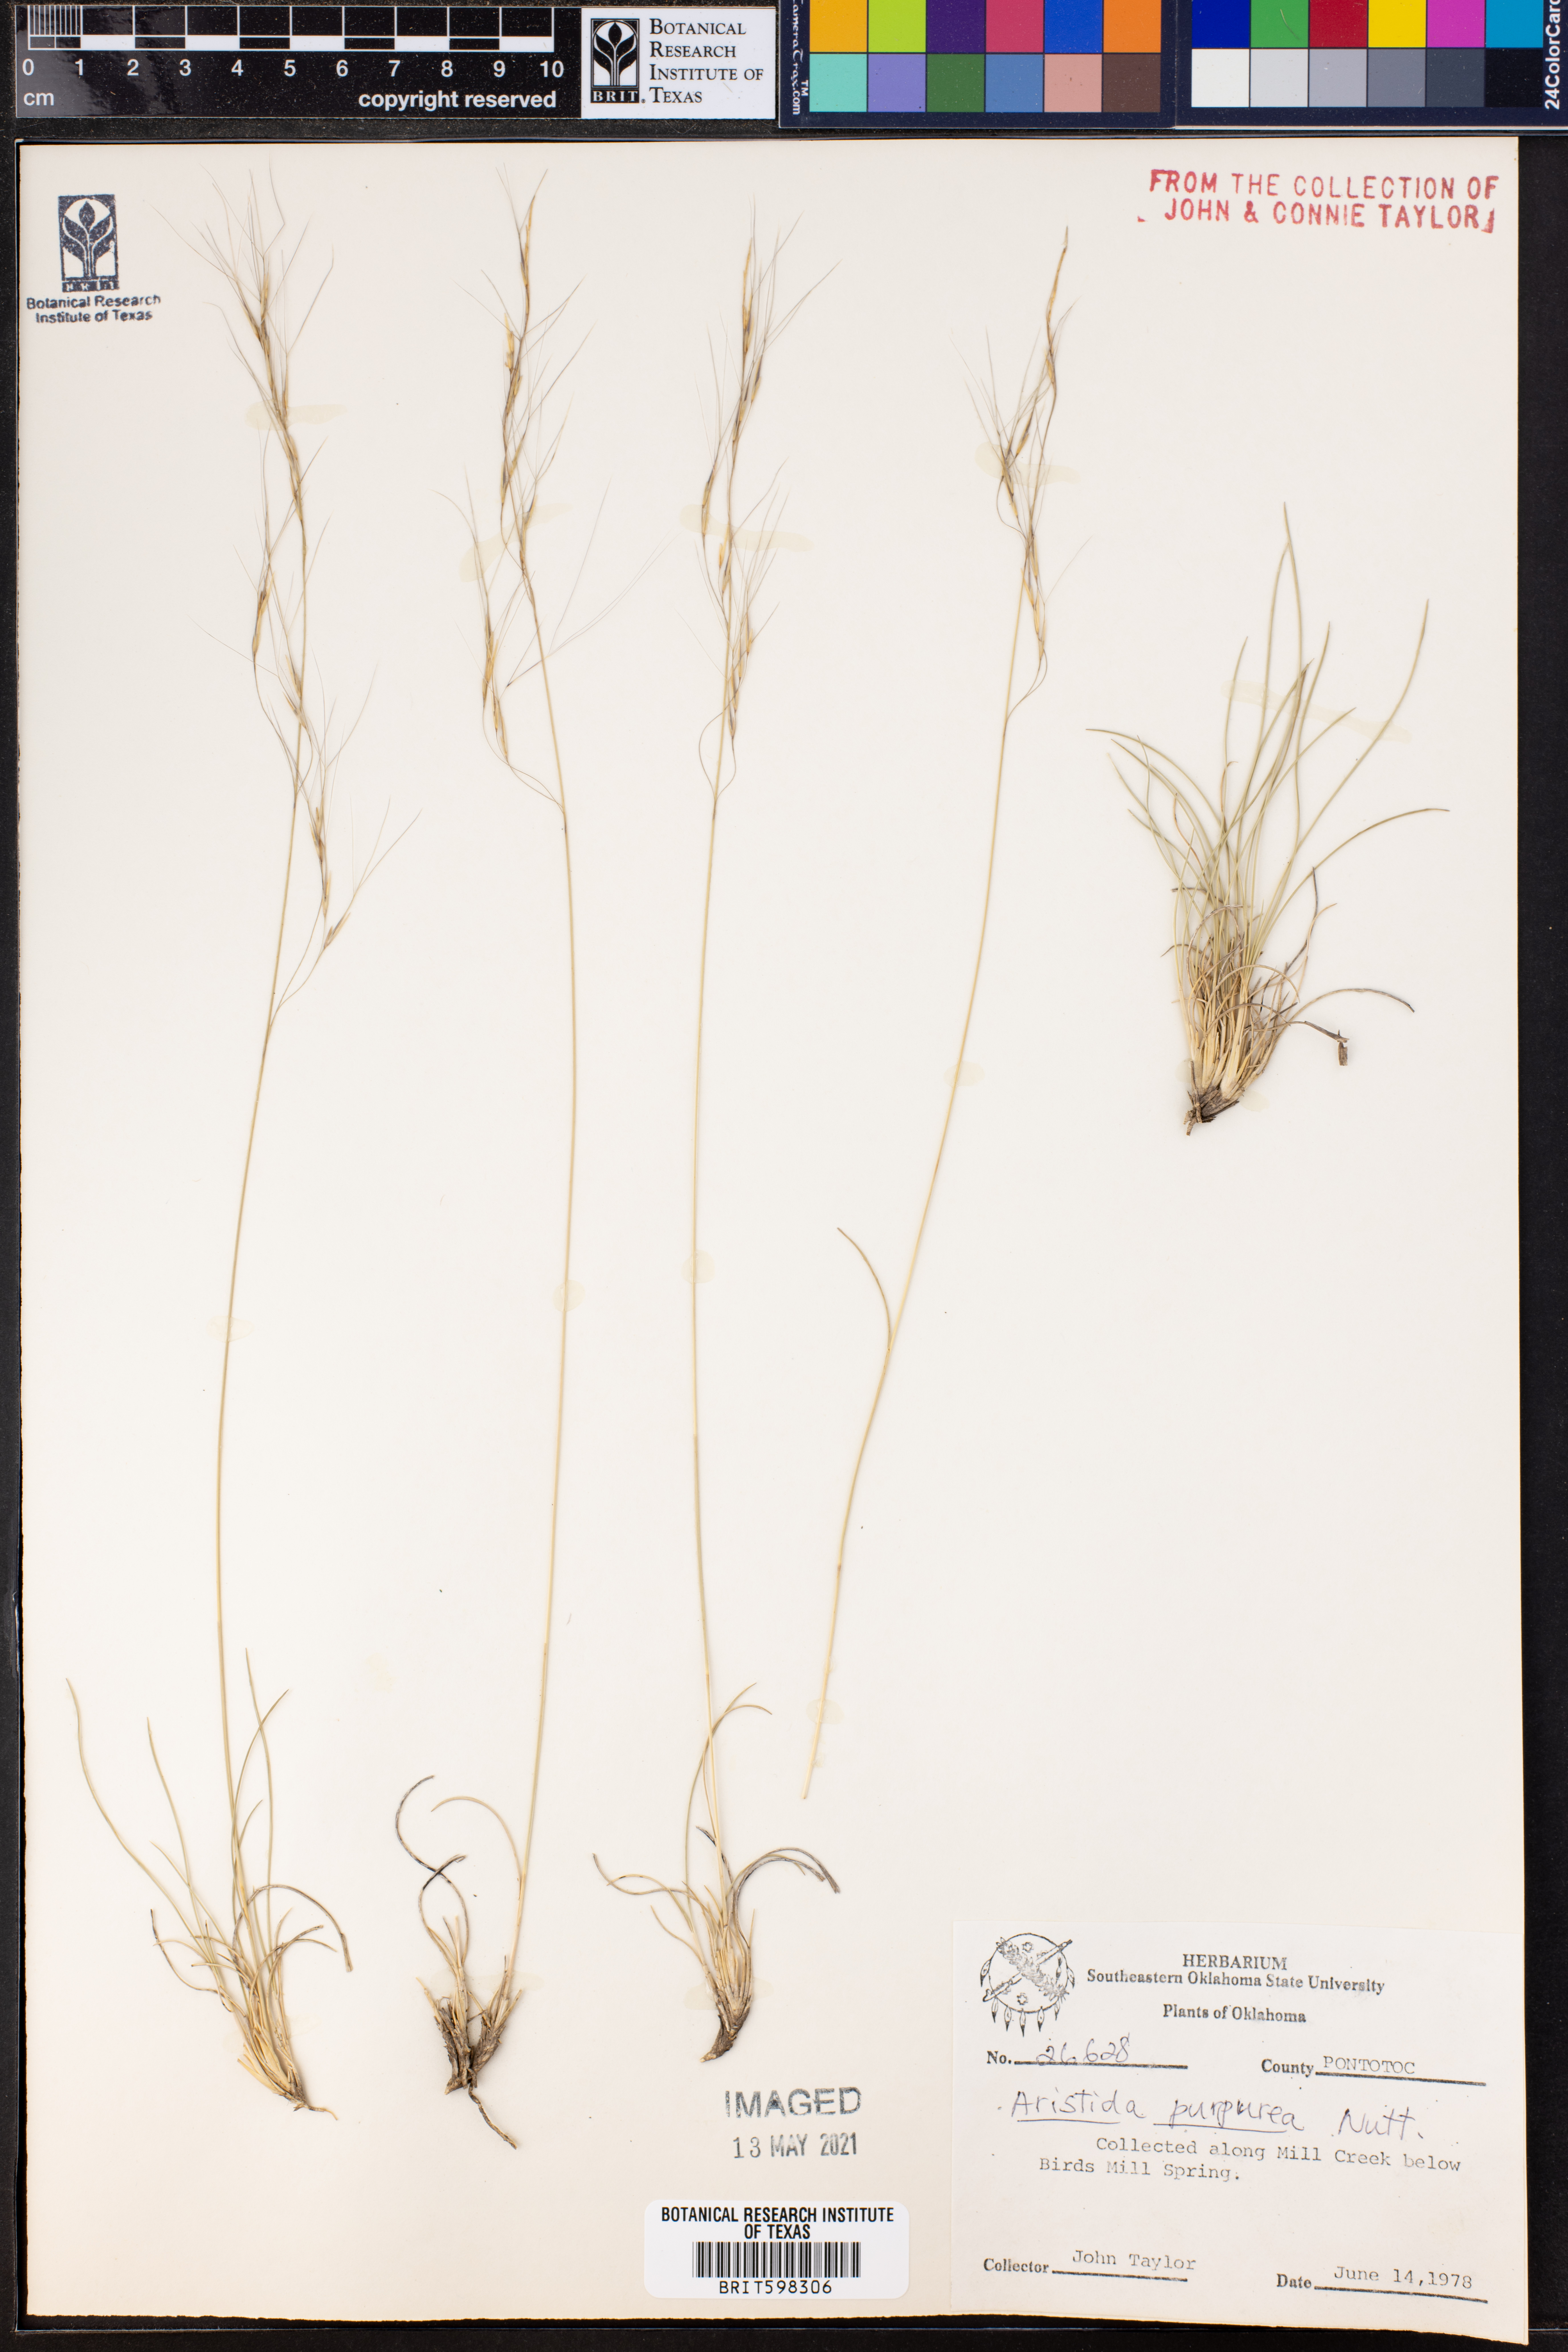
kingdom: Plantae
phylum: Tracheophyta
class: Liliopsida
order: Poales
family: Poaceae
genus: Aristida
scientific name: Aristida purpurea
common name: Purple threeawn
